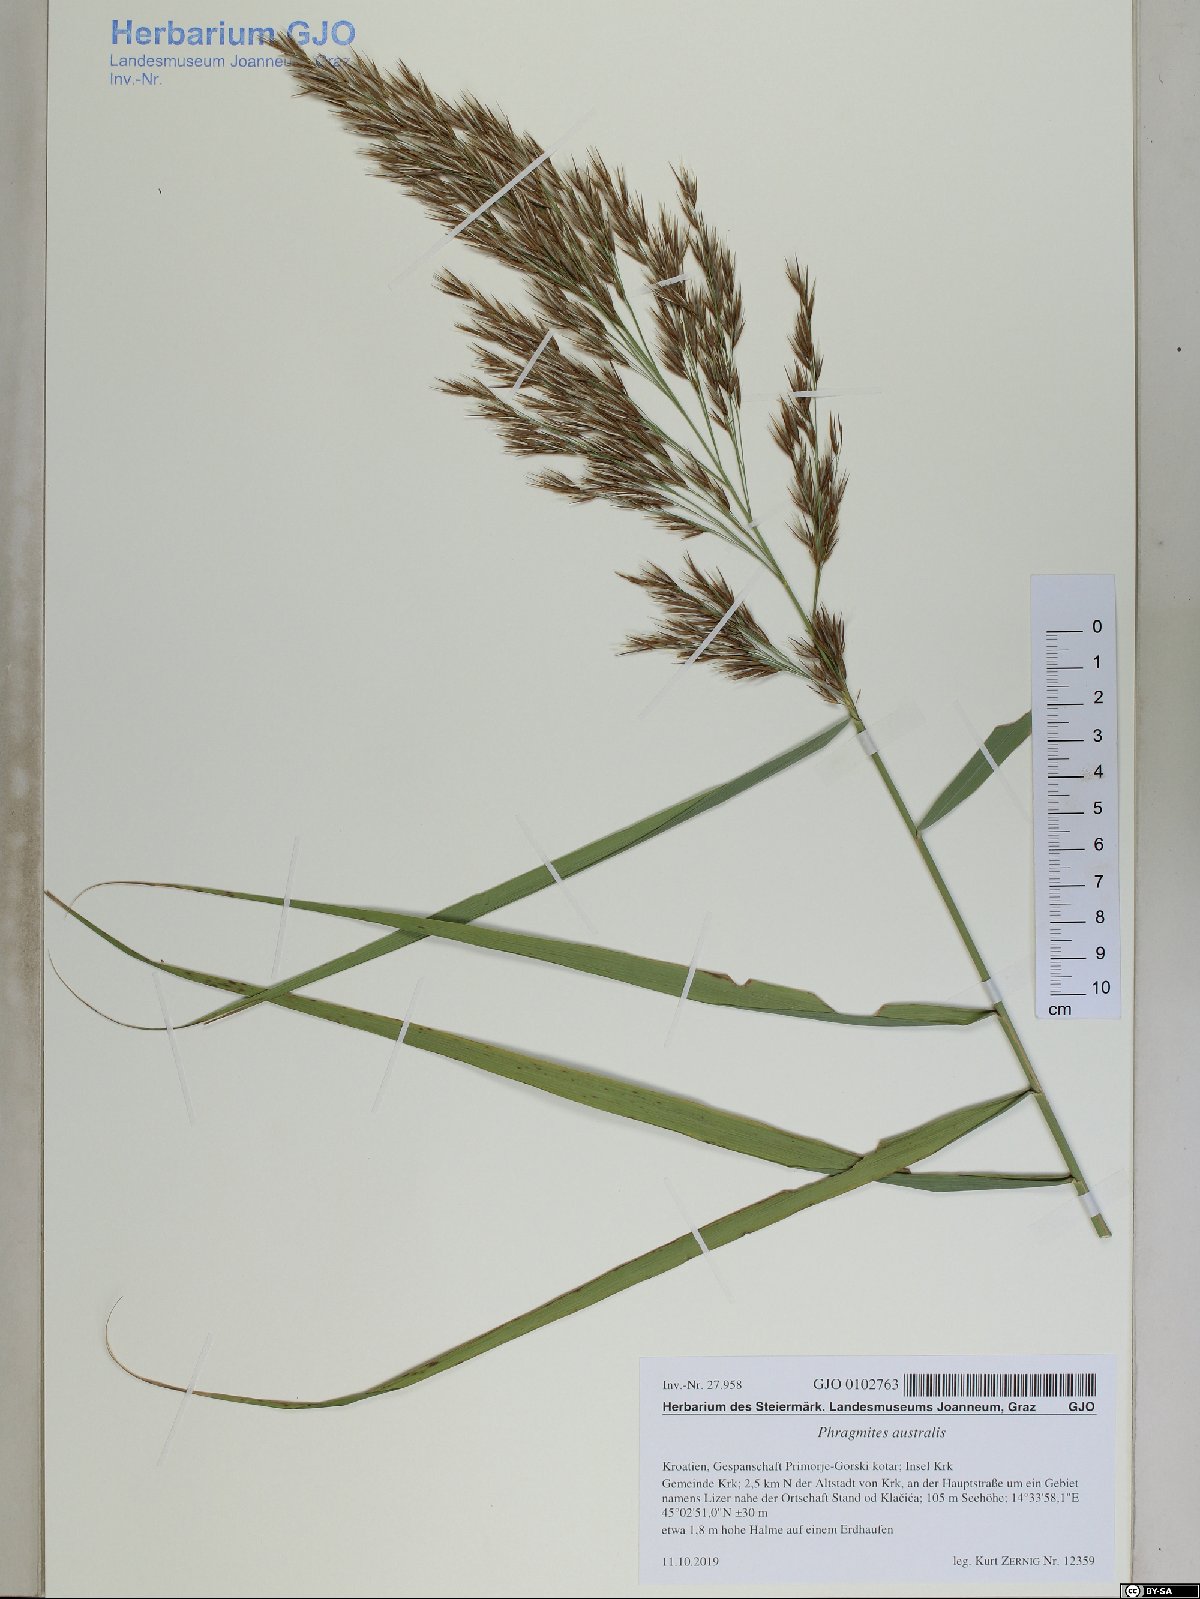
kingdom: Plantae
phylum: Tracheophyta
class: Liliopsida
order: Poales
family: Poaceae
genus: Phragmites
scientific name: Phragmites australis
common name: Common reed
